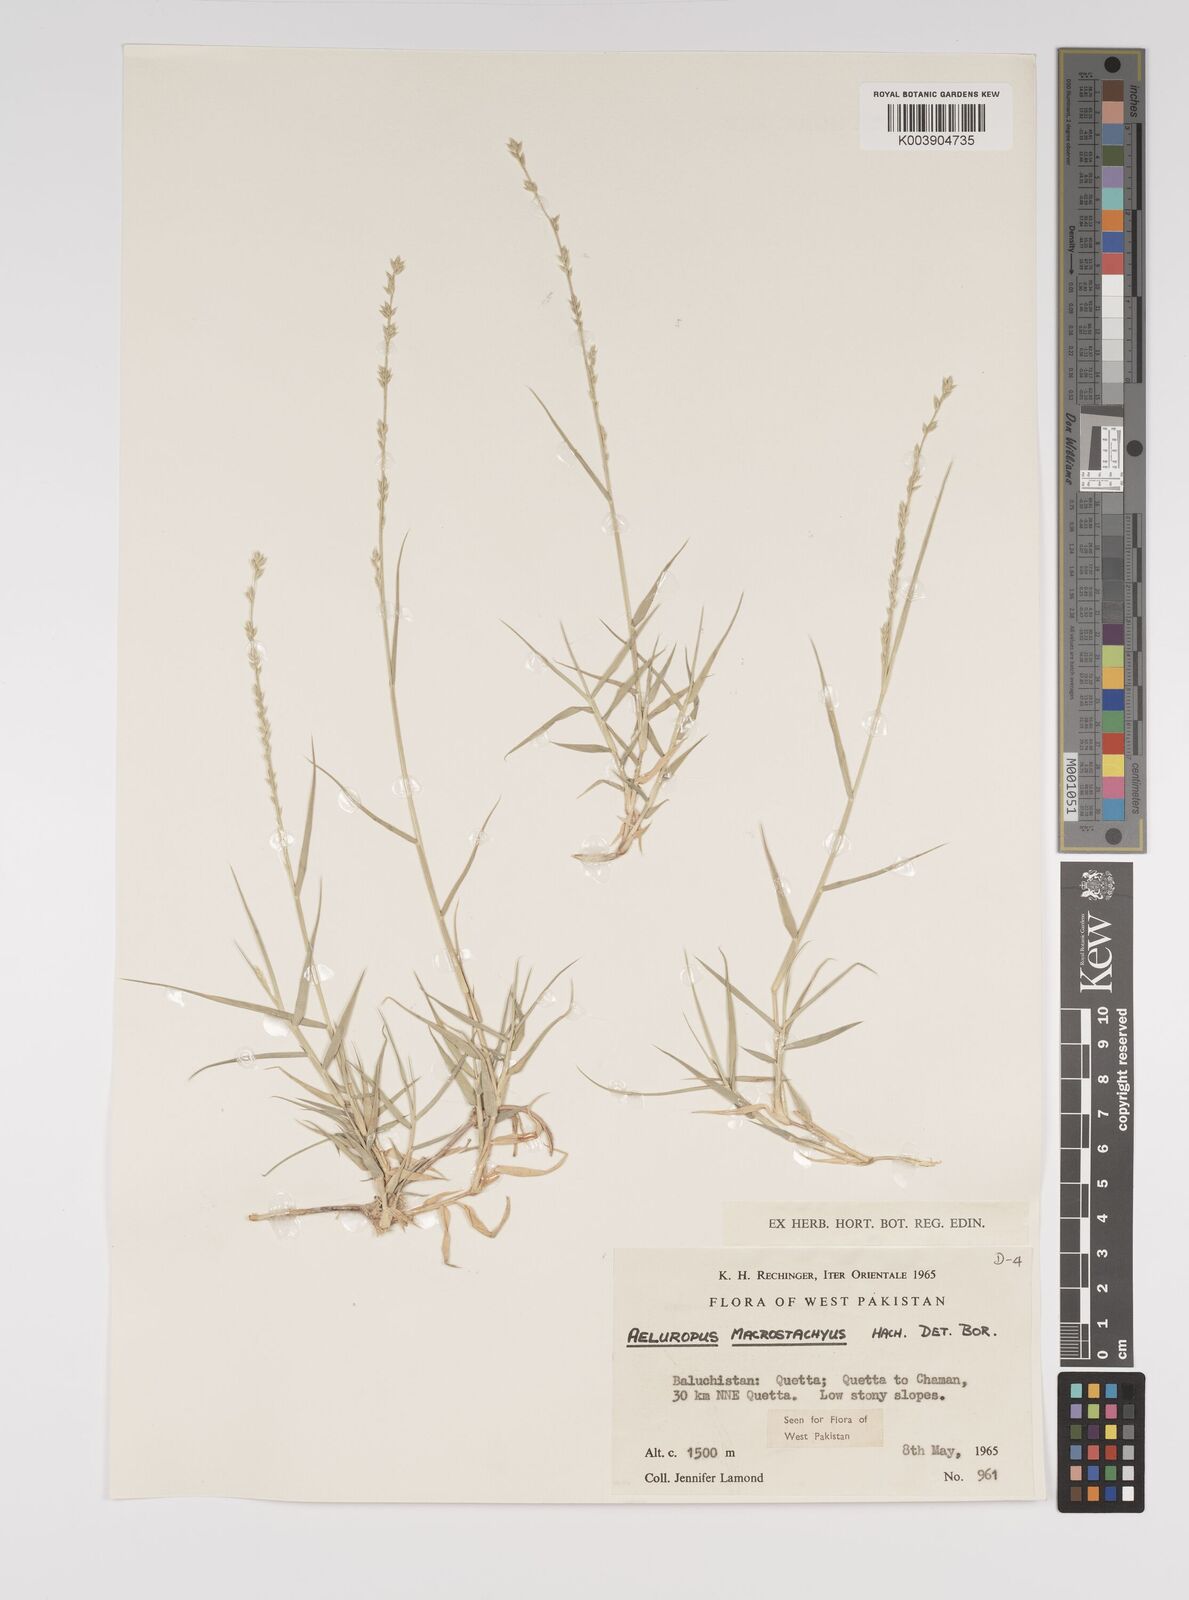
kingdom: Plantae
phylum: Tracheophyta
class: Liliopsida
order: Poales
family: Poaceae
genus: Aeluropus
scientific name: Aeluropus macrostachyus
